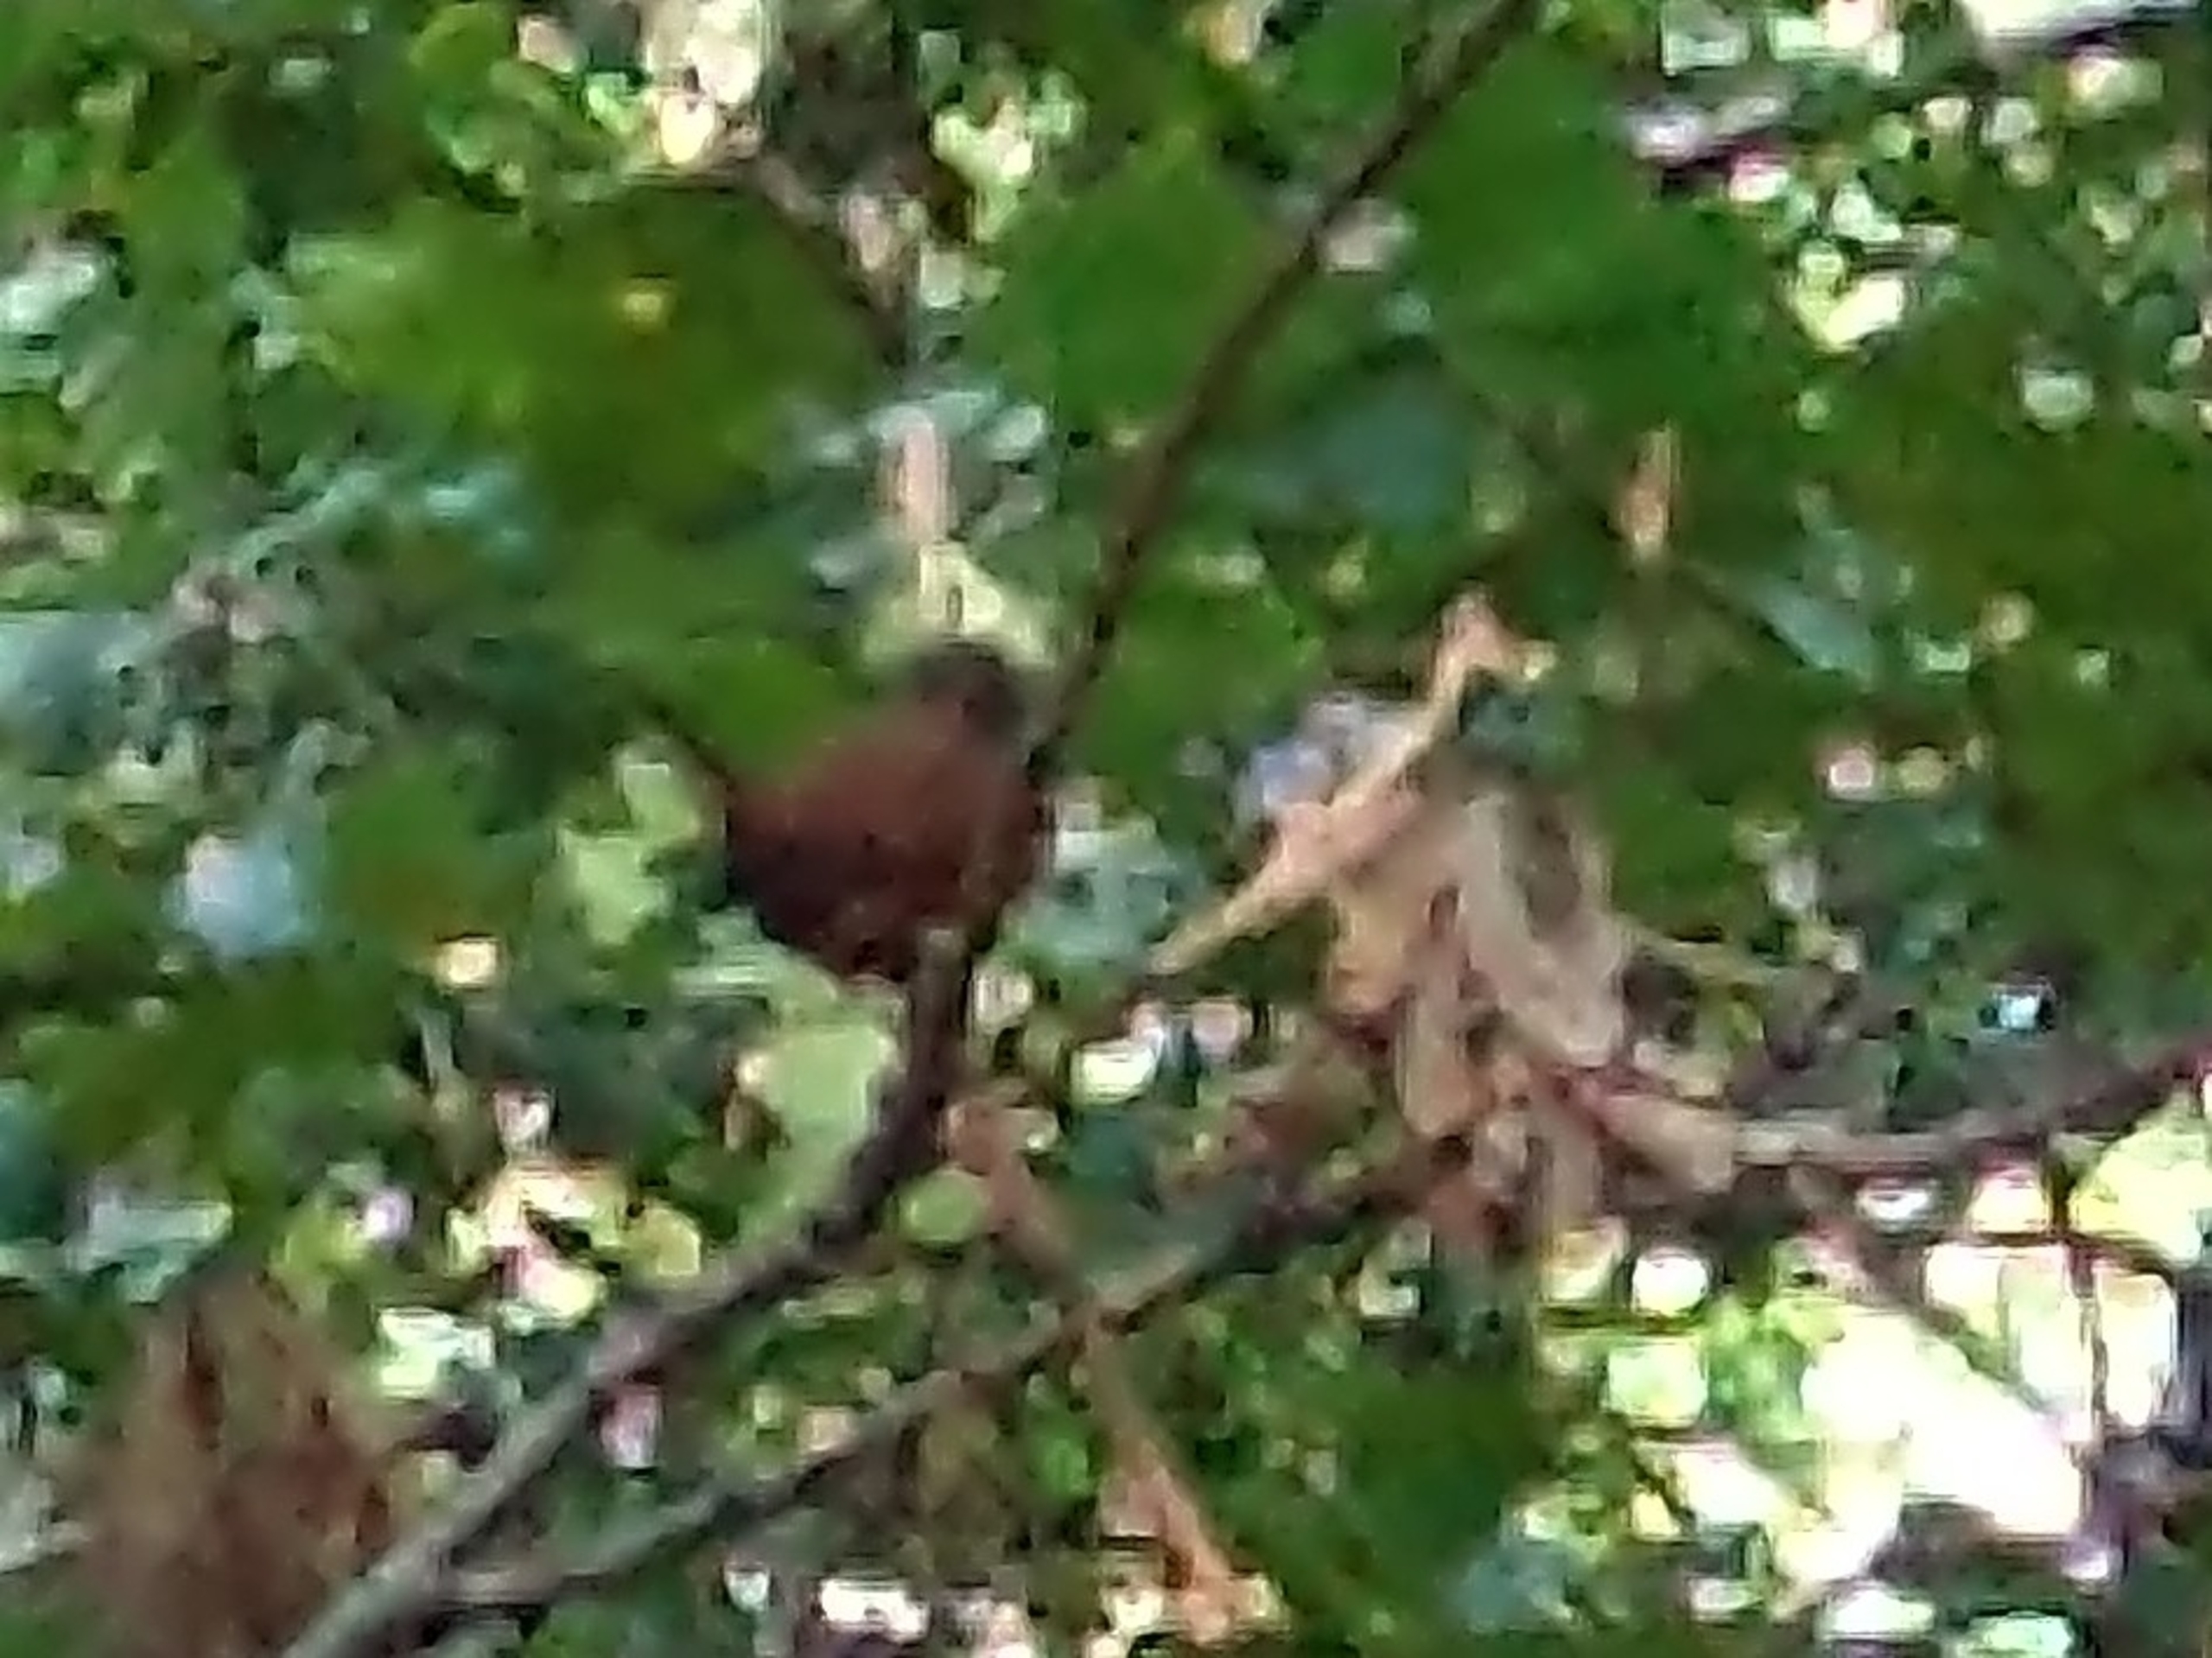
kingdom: Animalia
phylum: Chordata
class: Aves
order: Passeriformes
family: Troglodytidae
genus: Troglodytes
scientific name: Troglodytes troglodytes
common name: Gærdesmutte
